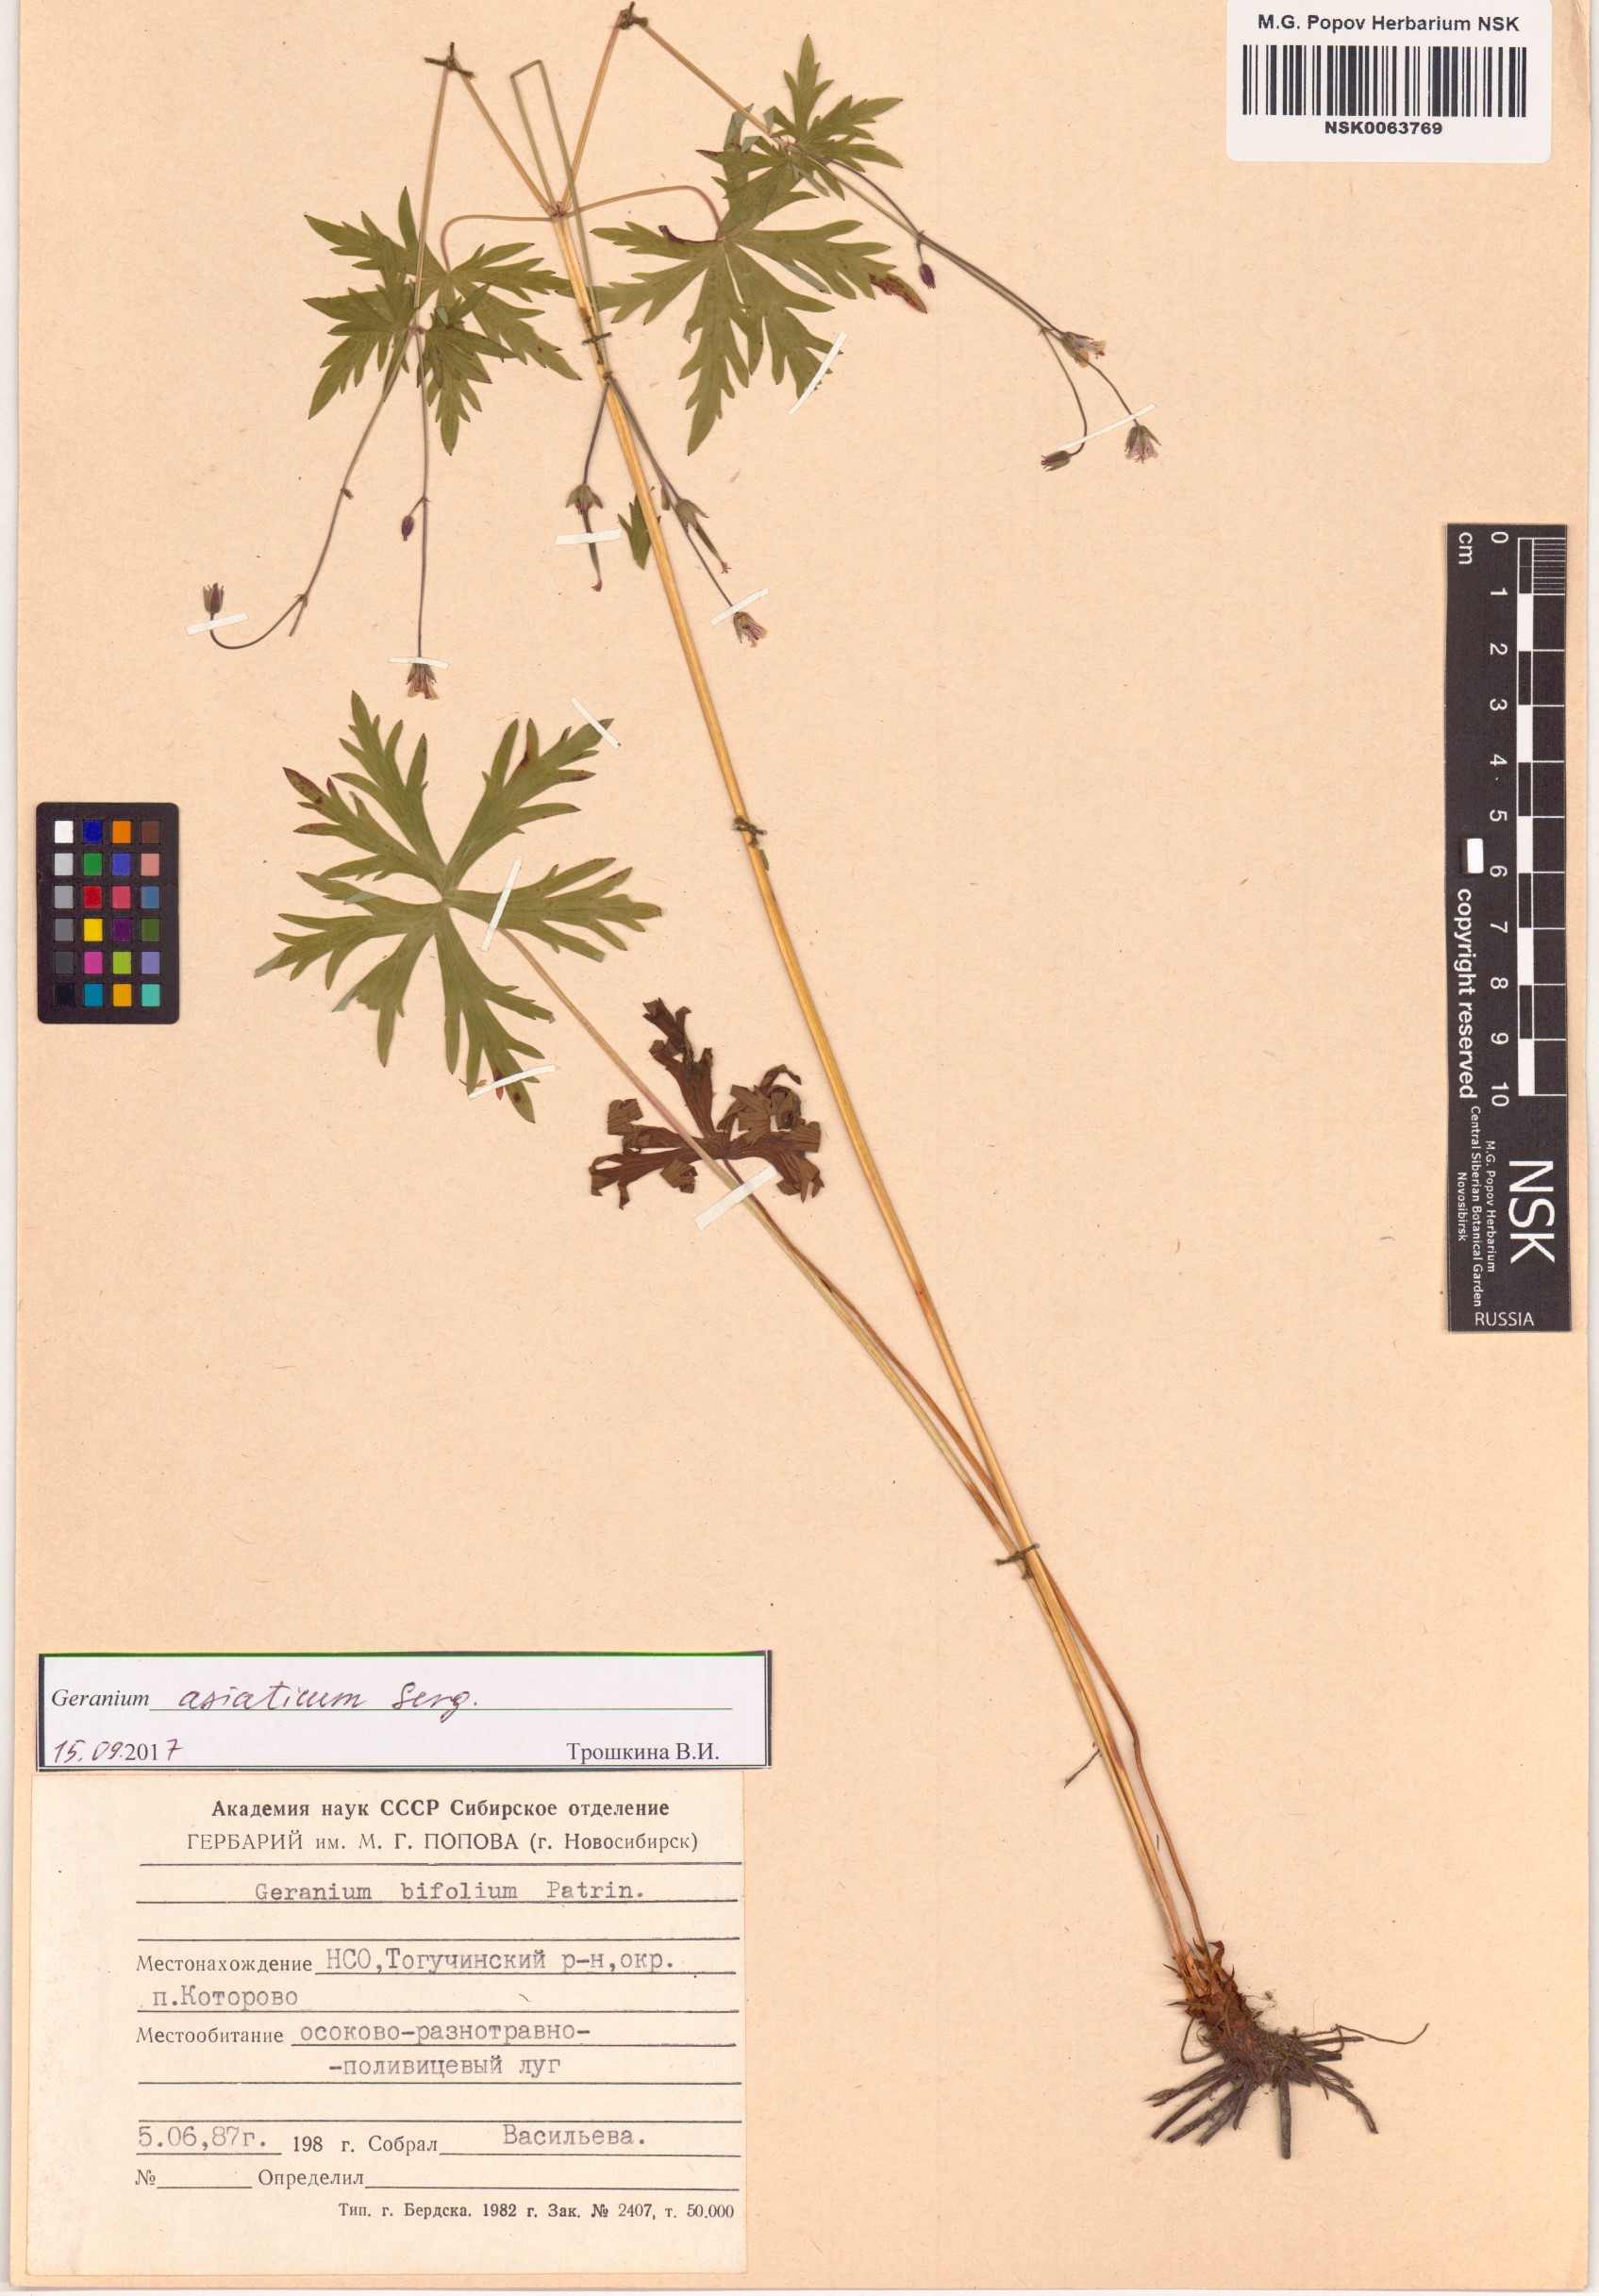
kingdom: Plantae
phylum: Tracheophyta
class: Magnoliopsida
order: Geraniales
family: Geraniaceae
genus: Geranium
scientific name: Geranium pseudosibiricum
